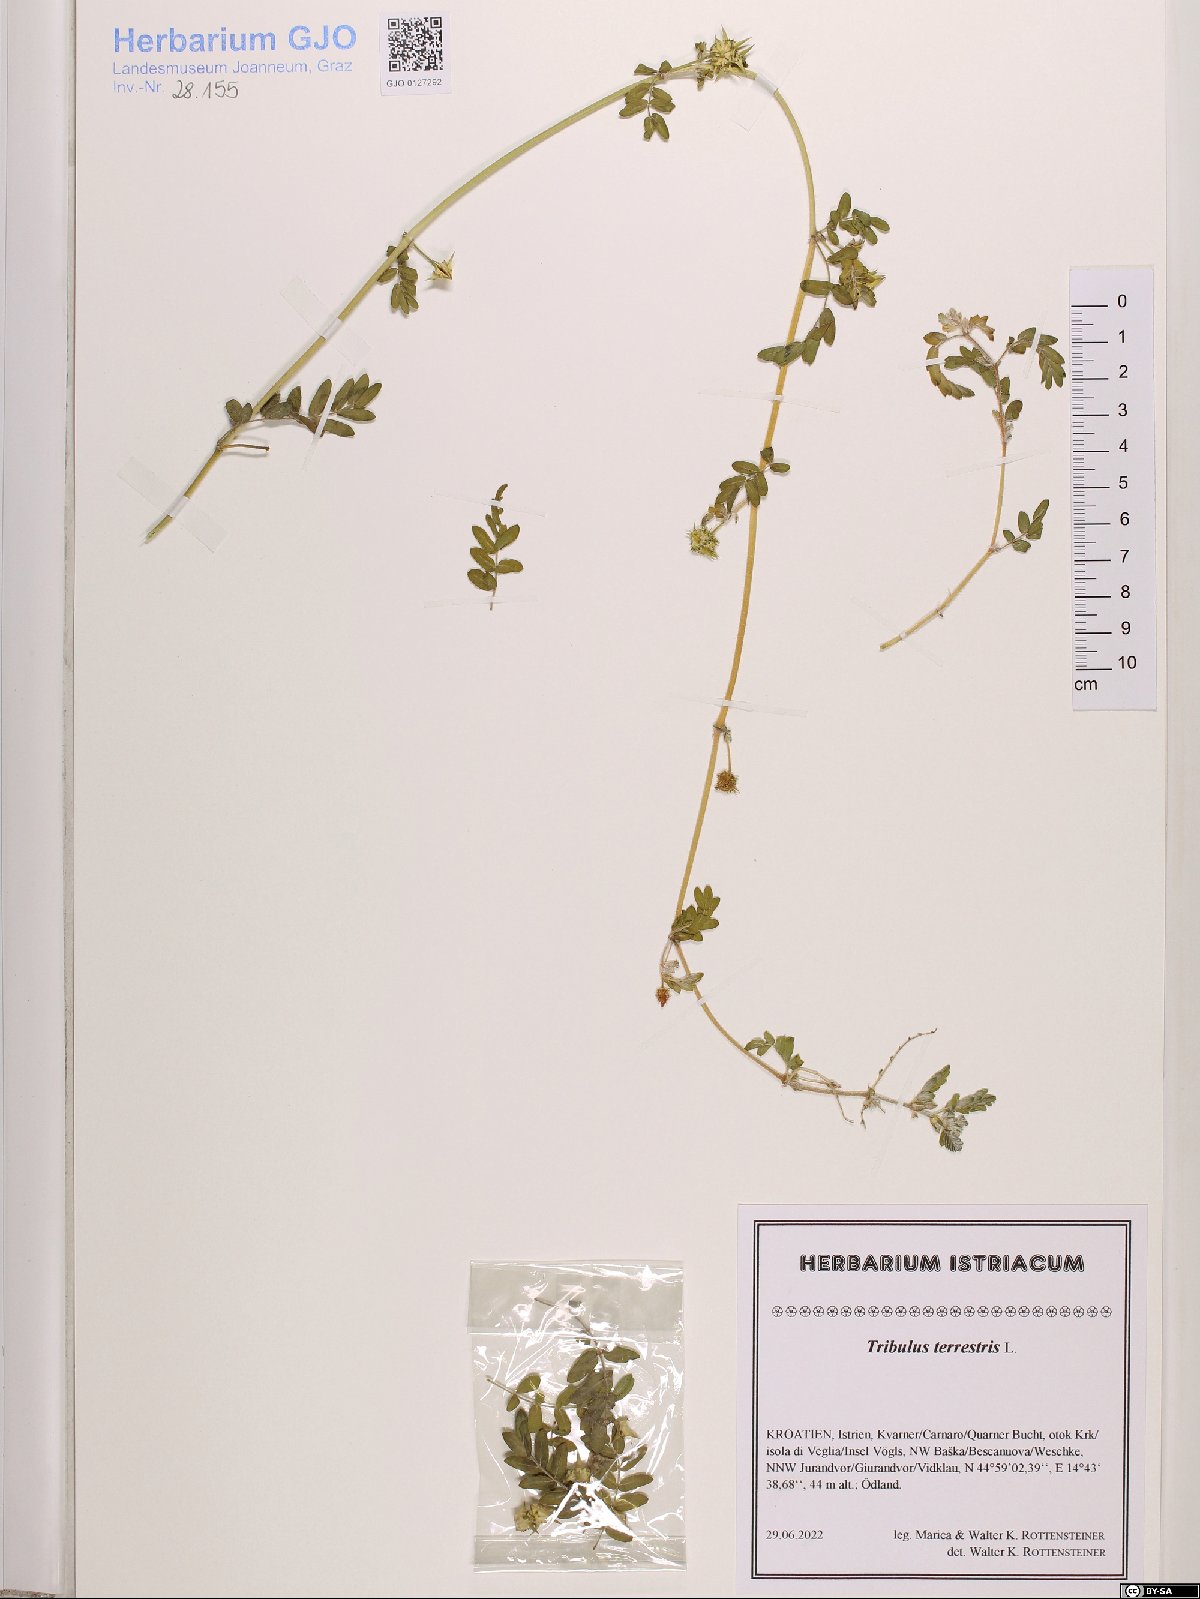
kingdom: Plantae
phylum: Tracheophyta
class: Magnoliopsida
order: Zygophyllales
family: Zygophyllaceae
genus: Tribulus
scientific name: Tribulus terrestris
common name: Puncturevine
